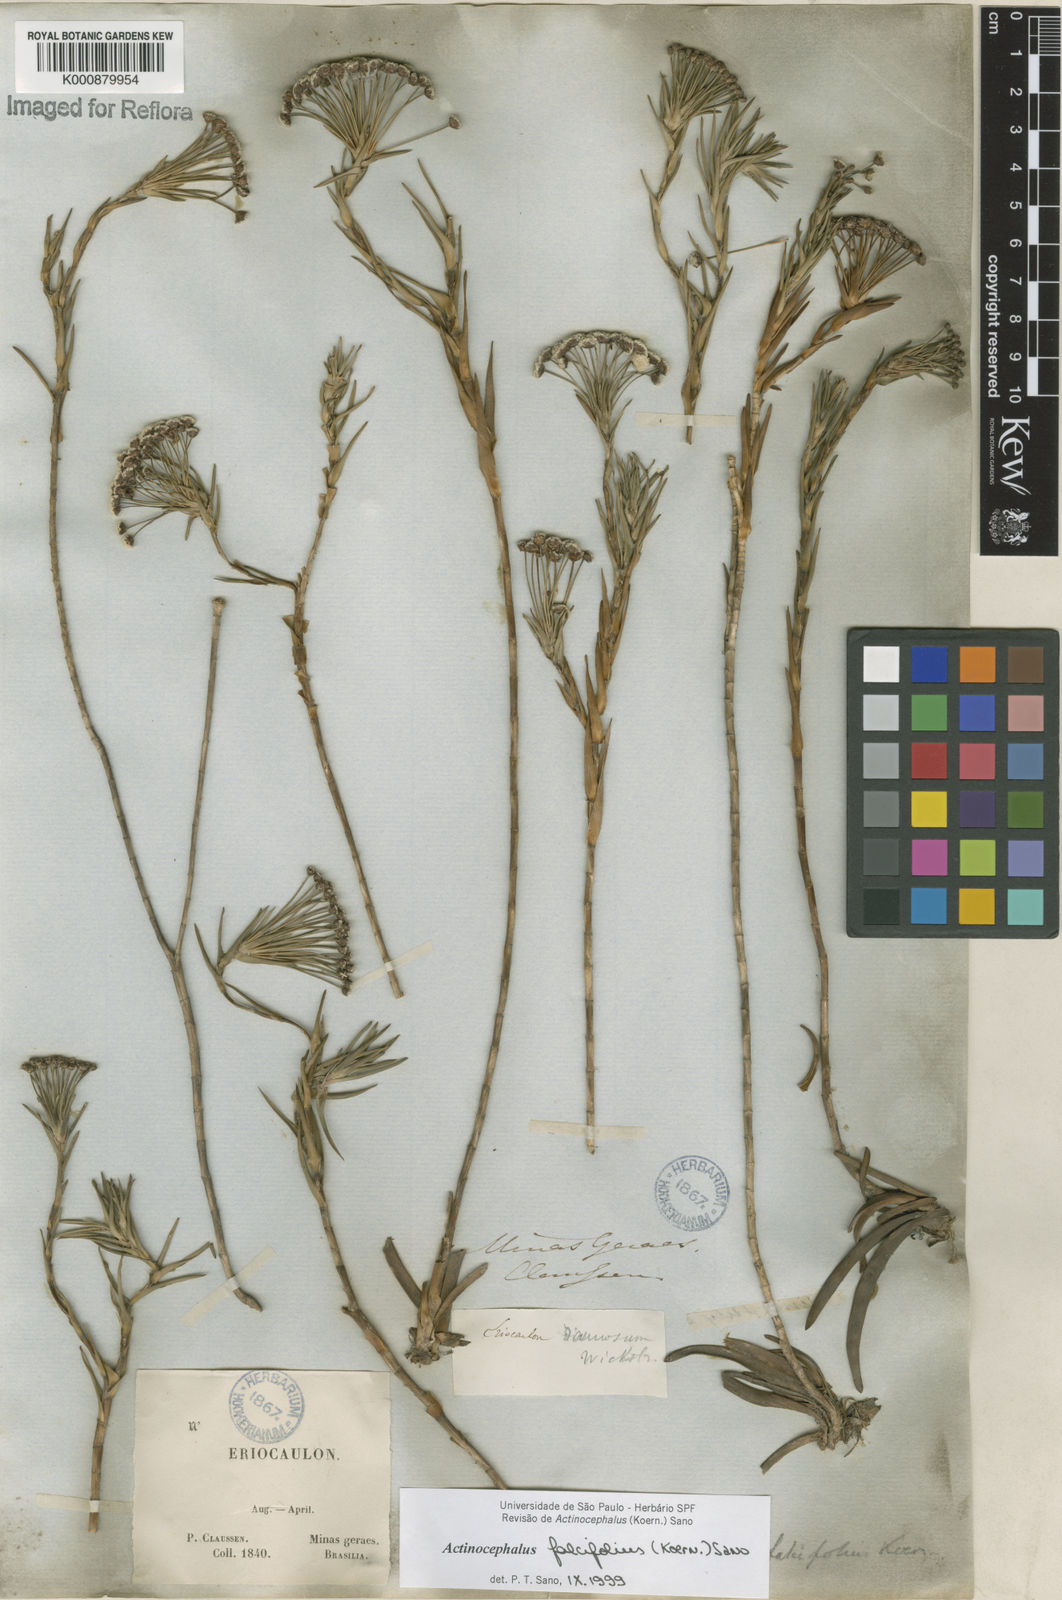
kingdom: Plantae
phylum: Tracheophyta
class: Liliopsida
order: Poales
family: Eriocaulaceae
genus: Paepalanthus
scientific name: Paepalanthus
